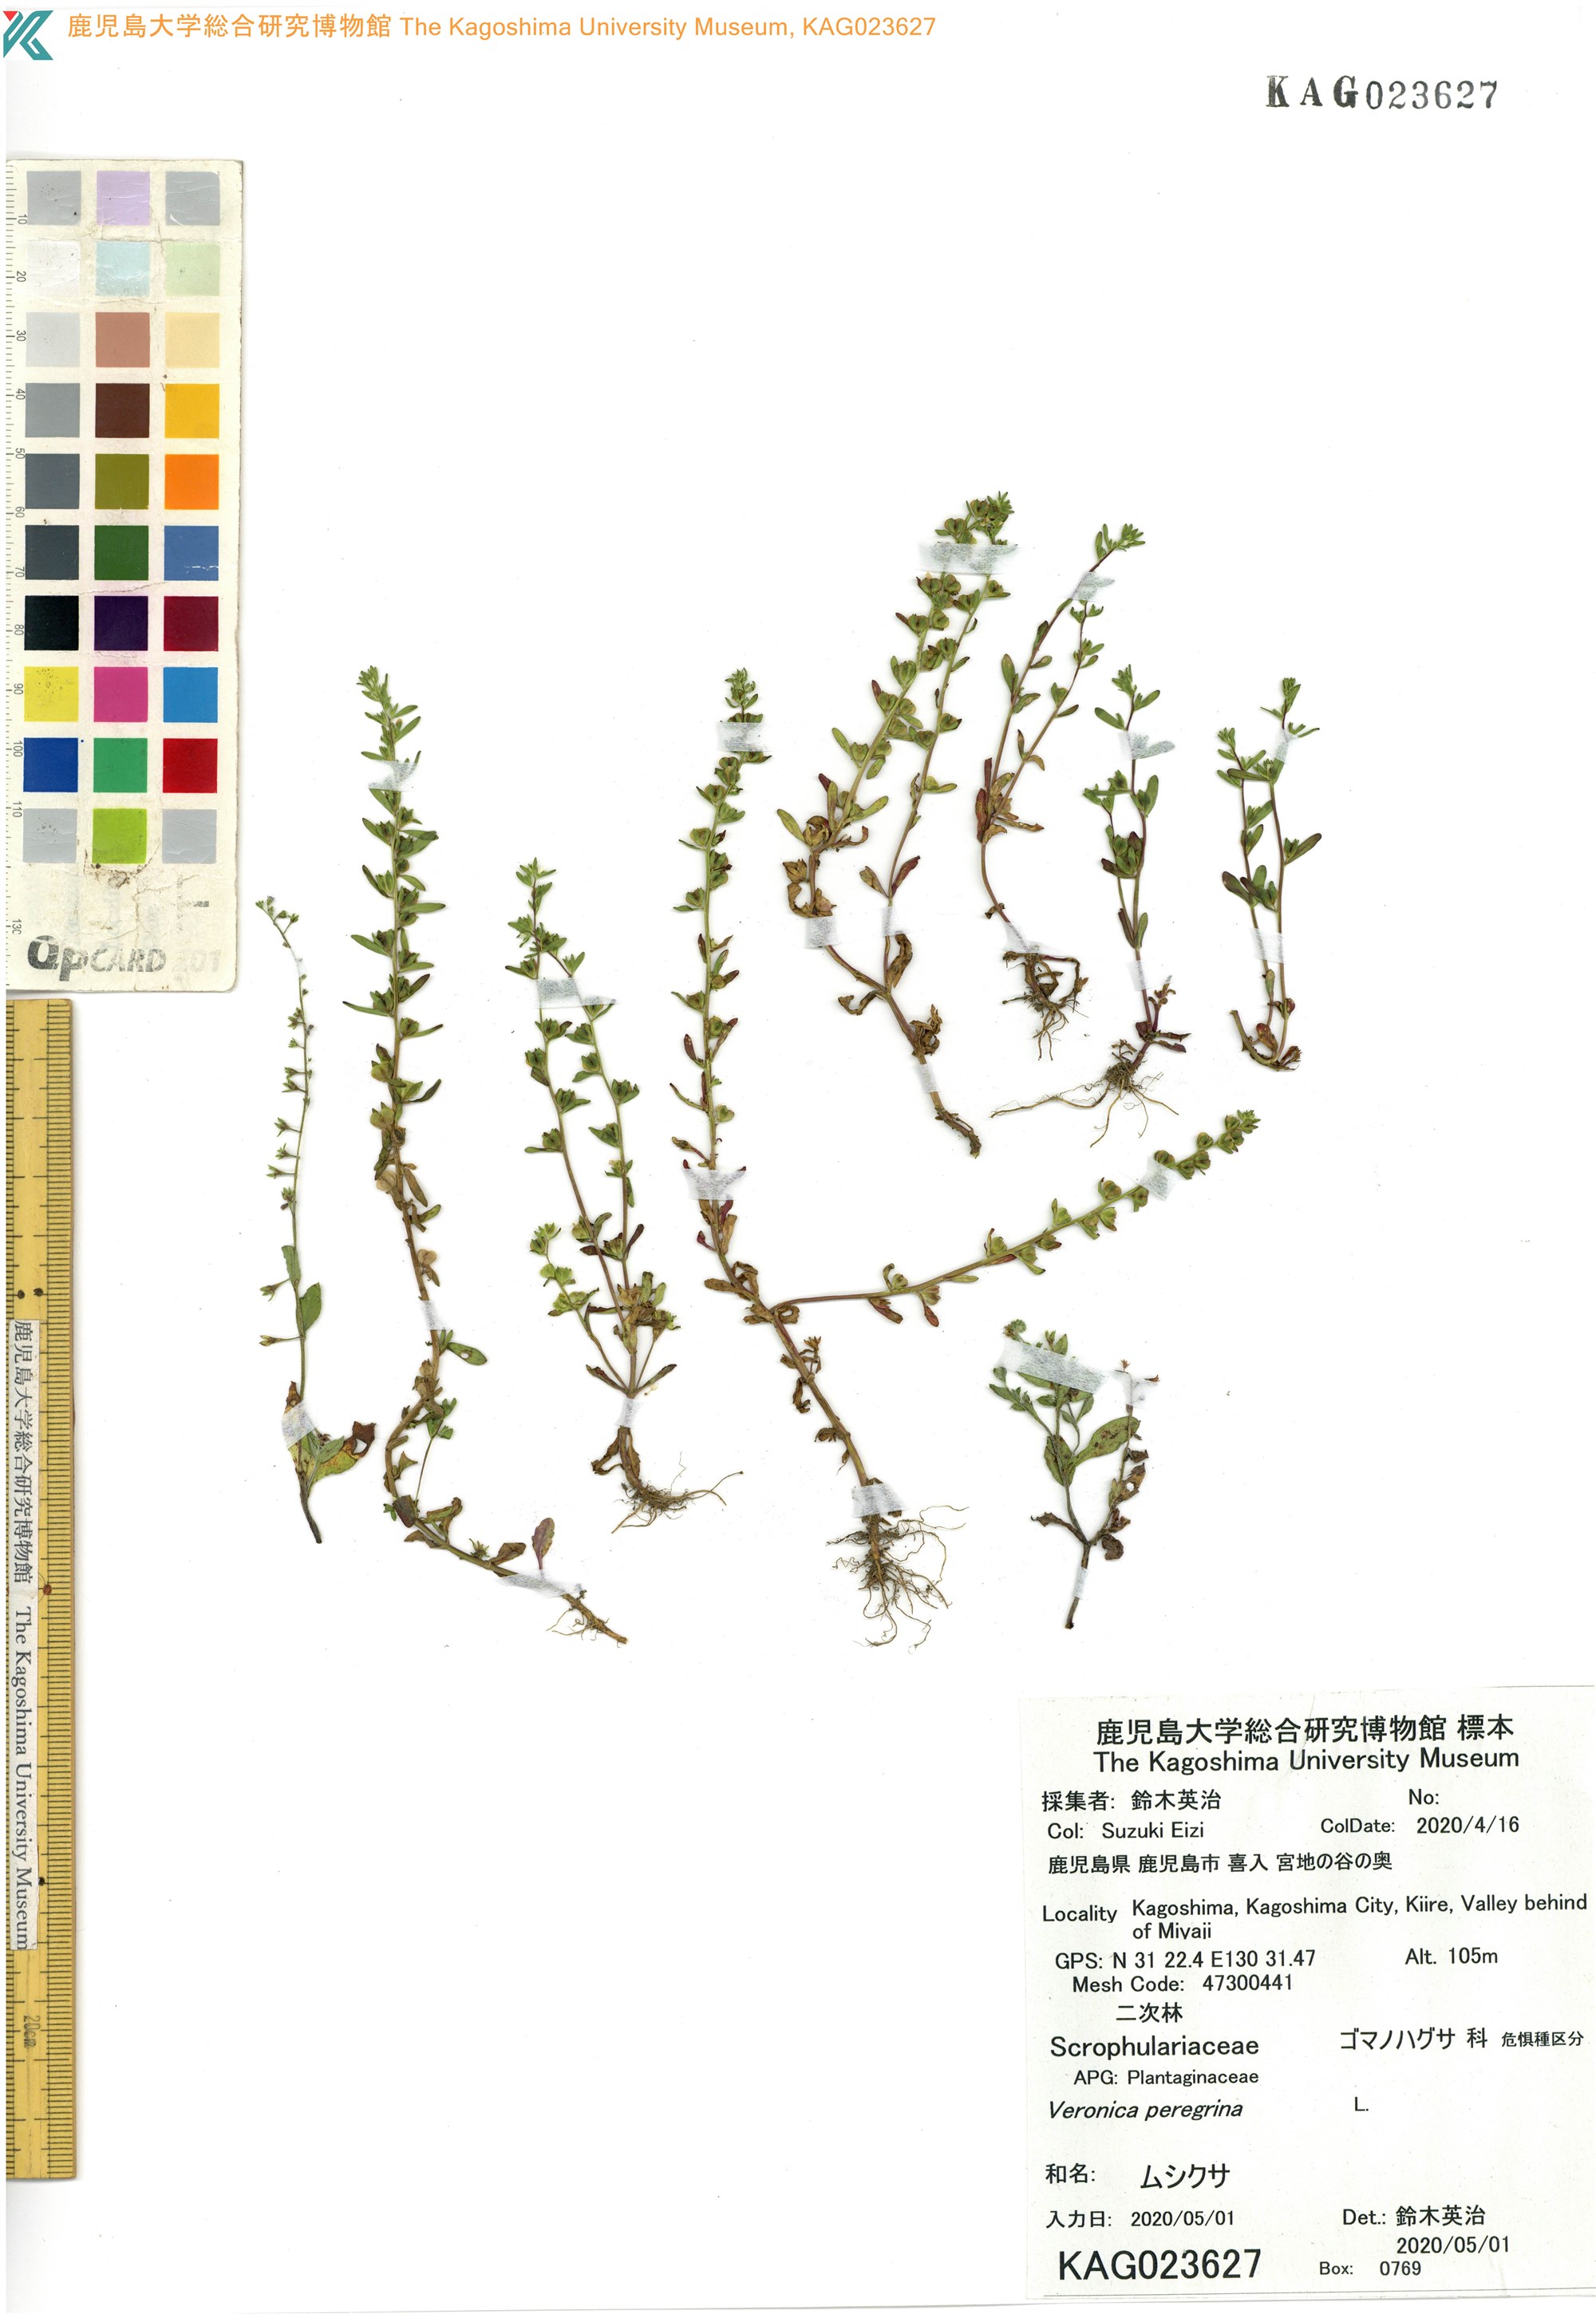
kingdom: Plantae
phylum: Tracheophyta
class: Magnoliopsida
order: Lamiales
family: Plantaginaceae
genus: Veronica
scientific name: Veronica peregrina
